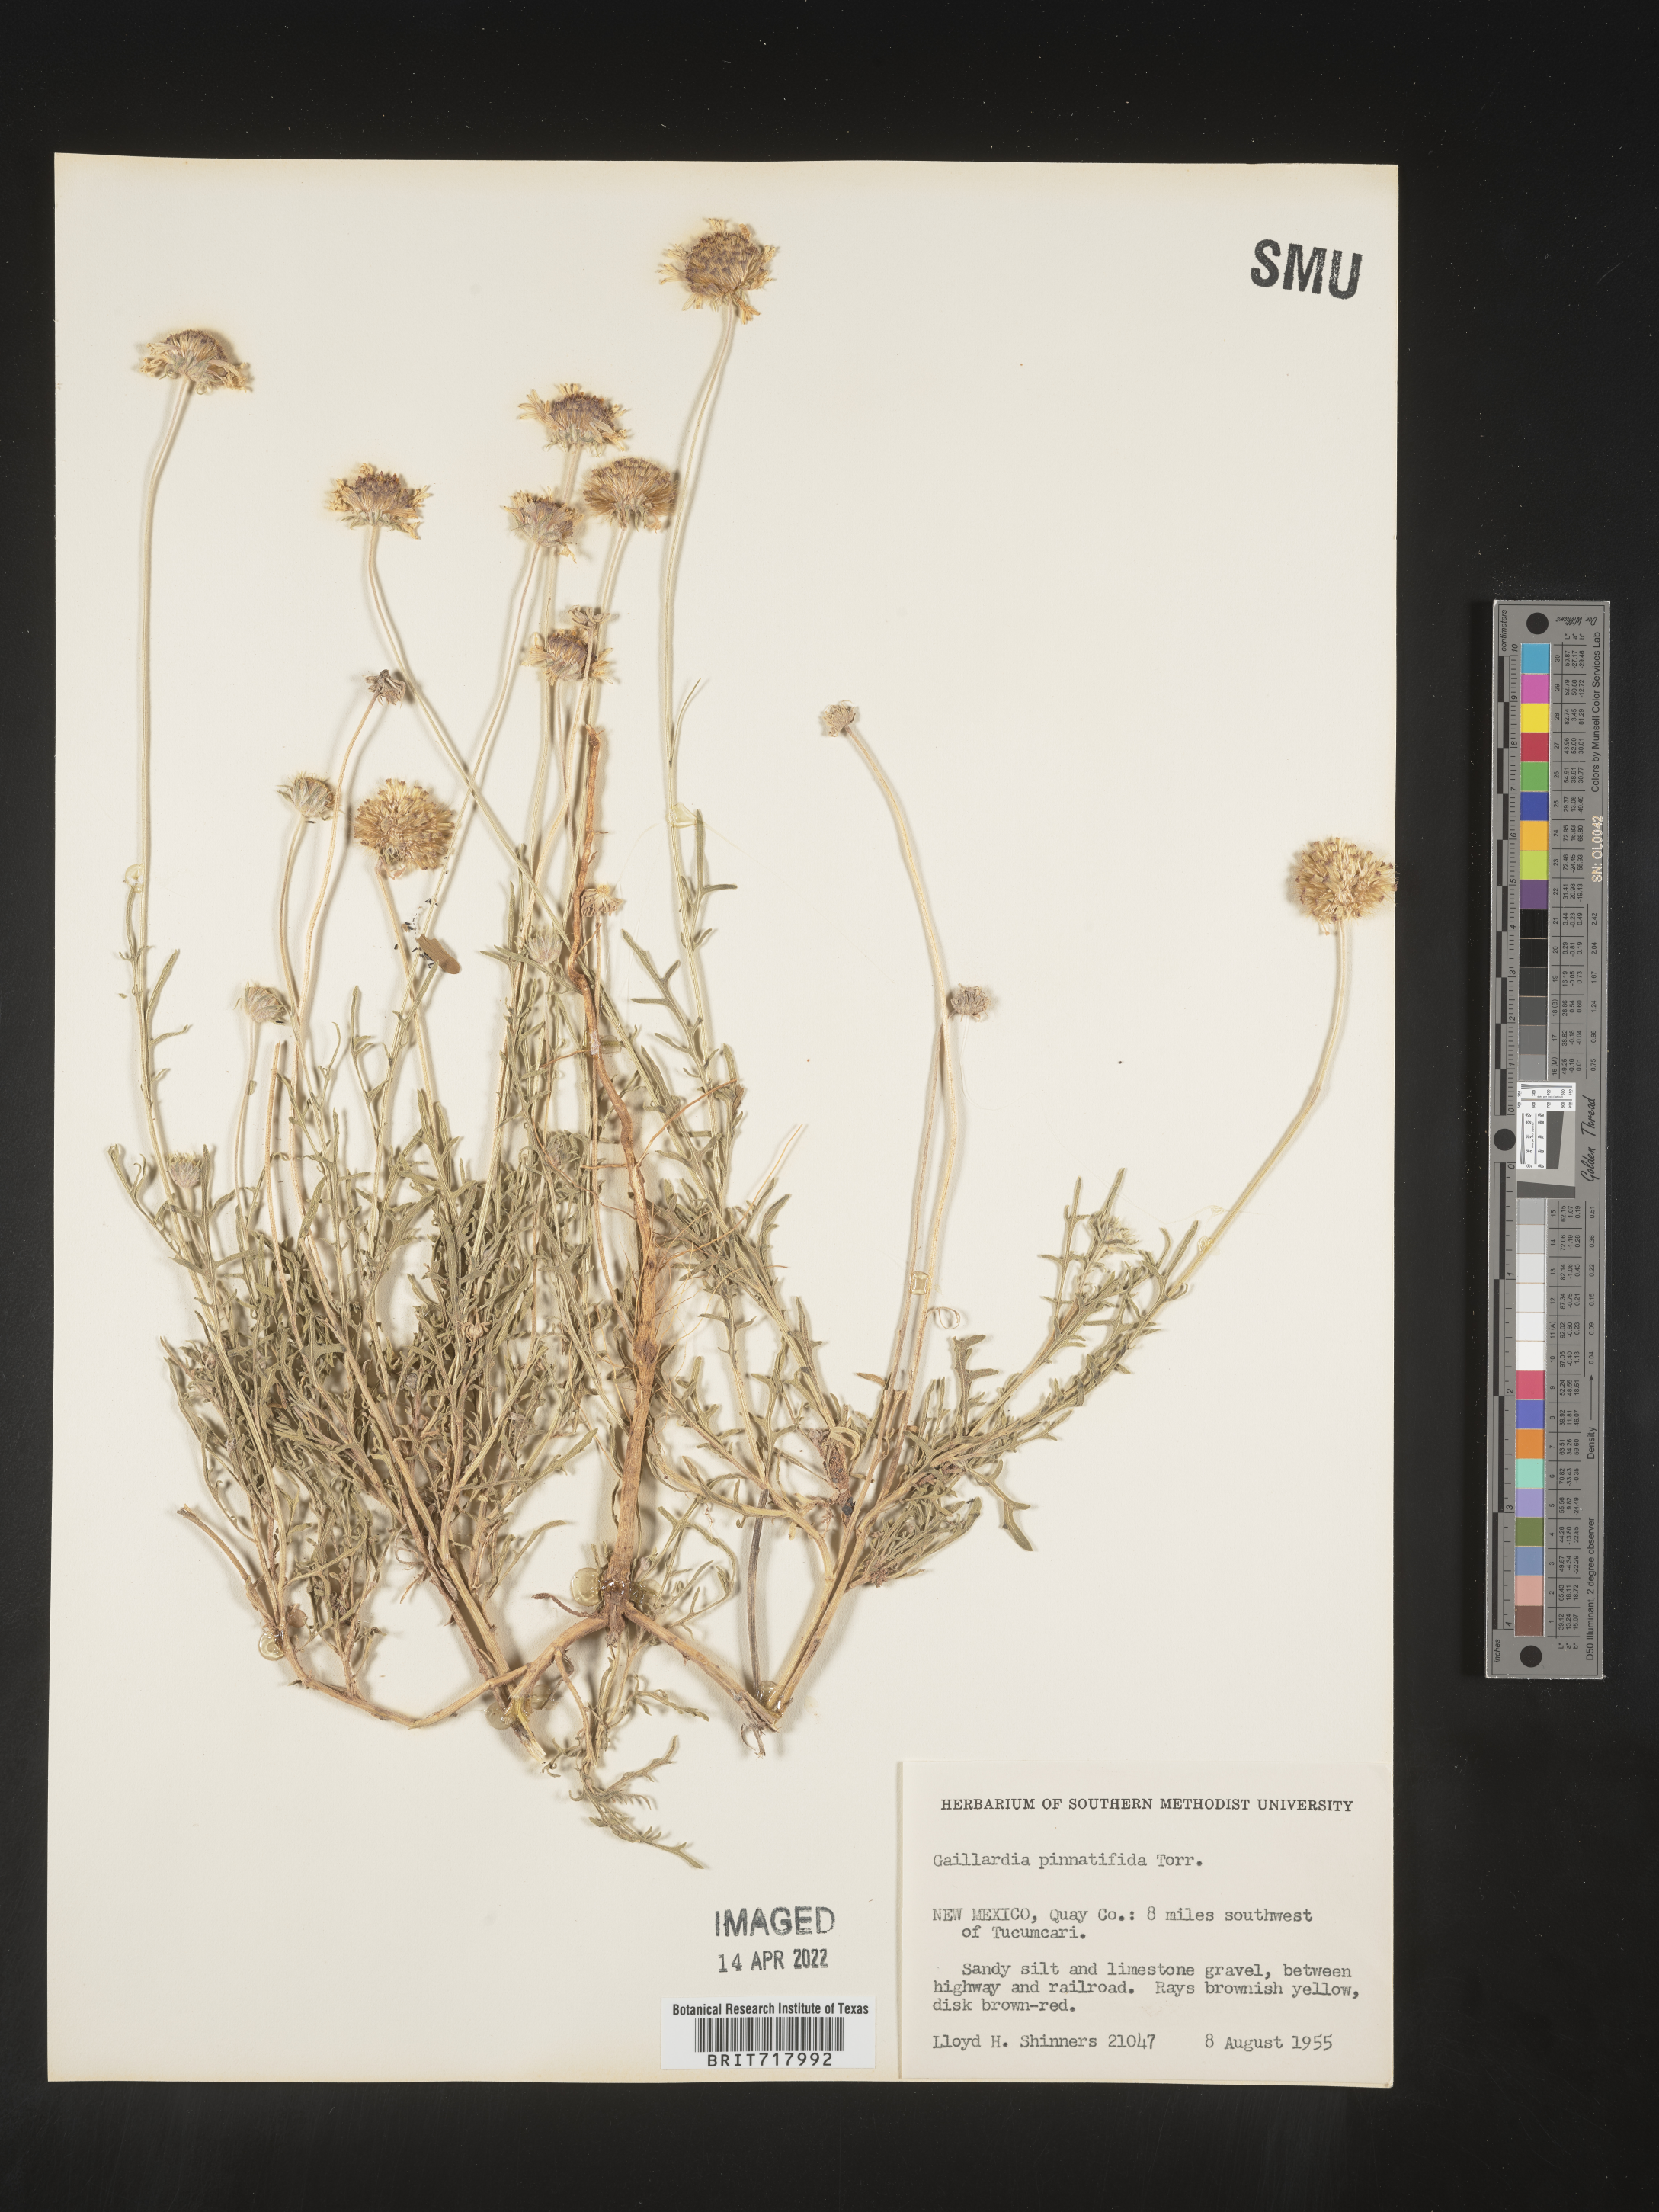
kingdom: Plantae
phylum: Tracheophyta
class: Magnoliopsida
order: Asterales
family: Asteraceae
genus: Gaillardia
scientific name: Gaillardia pinnatifida
